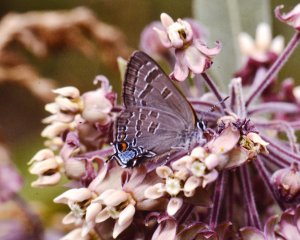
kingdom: Animalia
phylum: Arthropoda
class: Insecta
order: Lepidoptera
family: Lycaenidae
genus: Strymon
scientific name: Strymon caryaevorus
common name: Hickory Hairstreak
